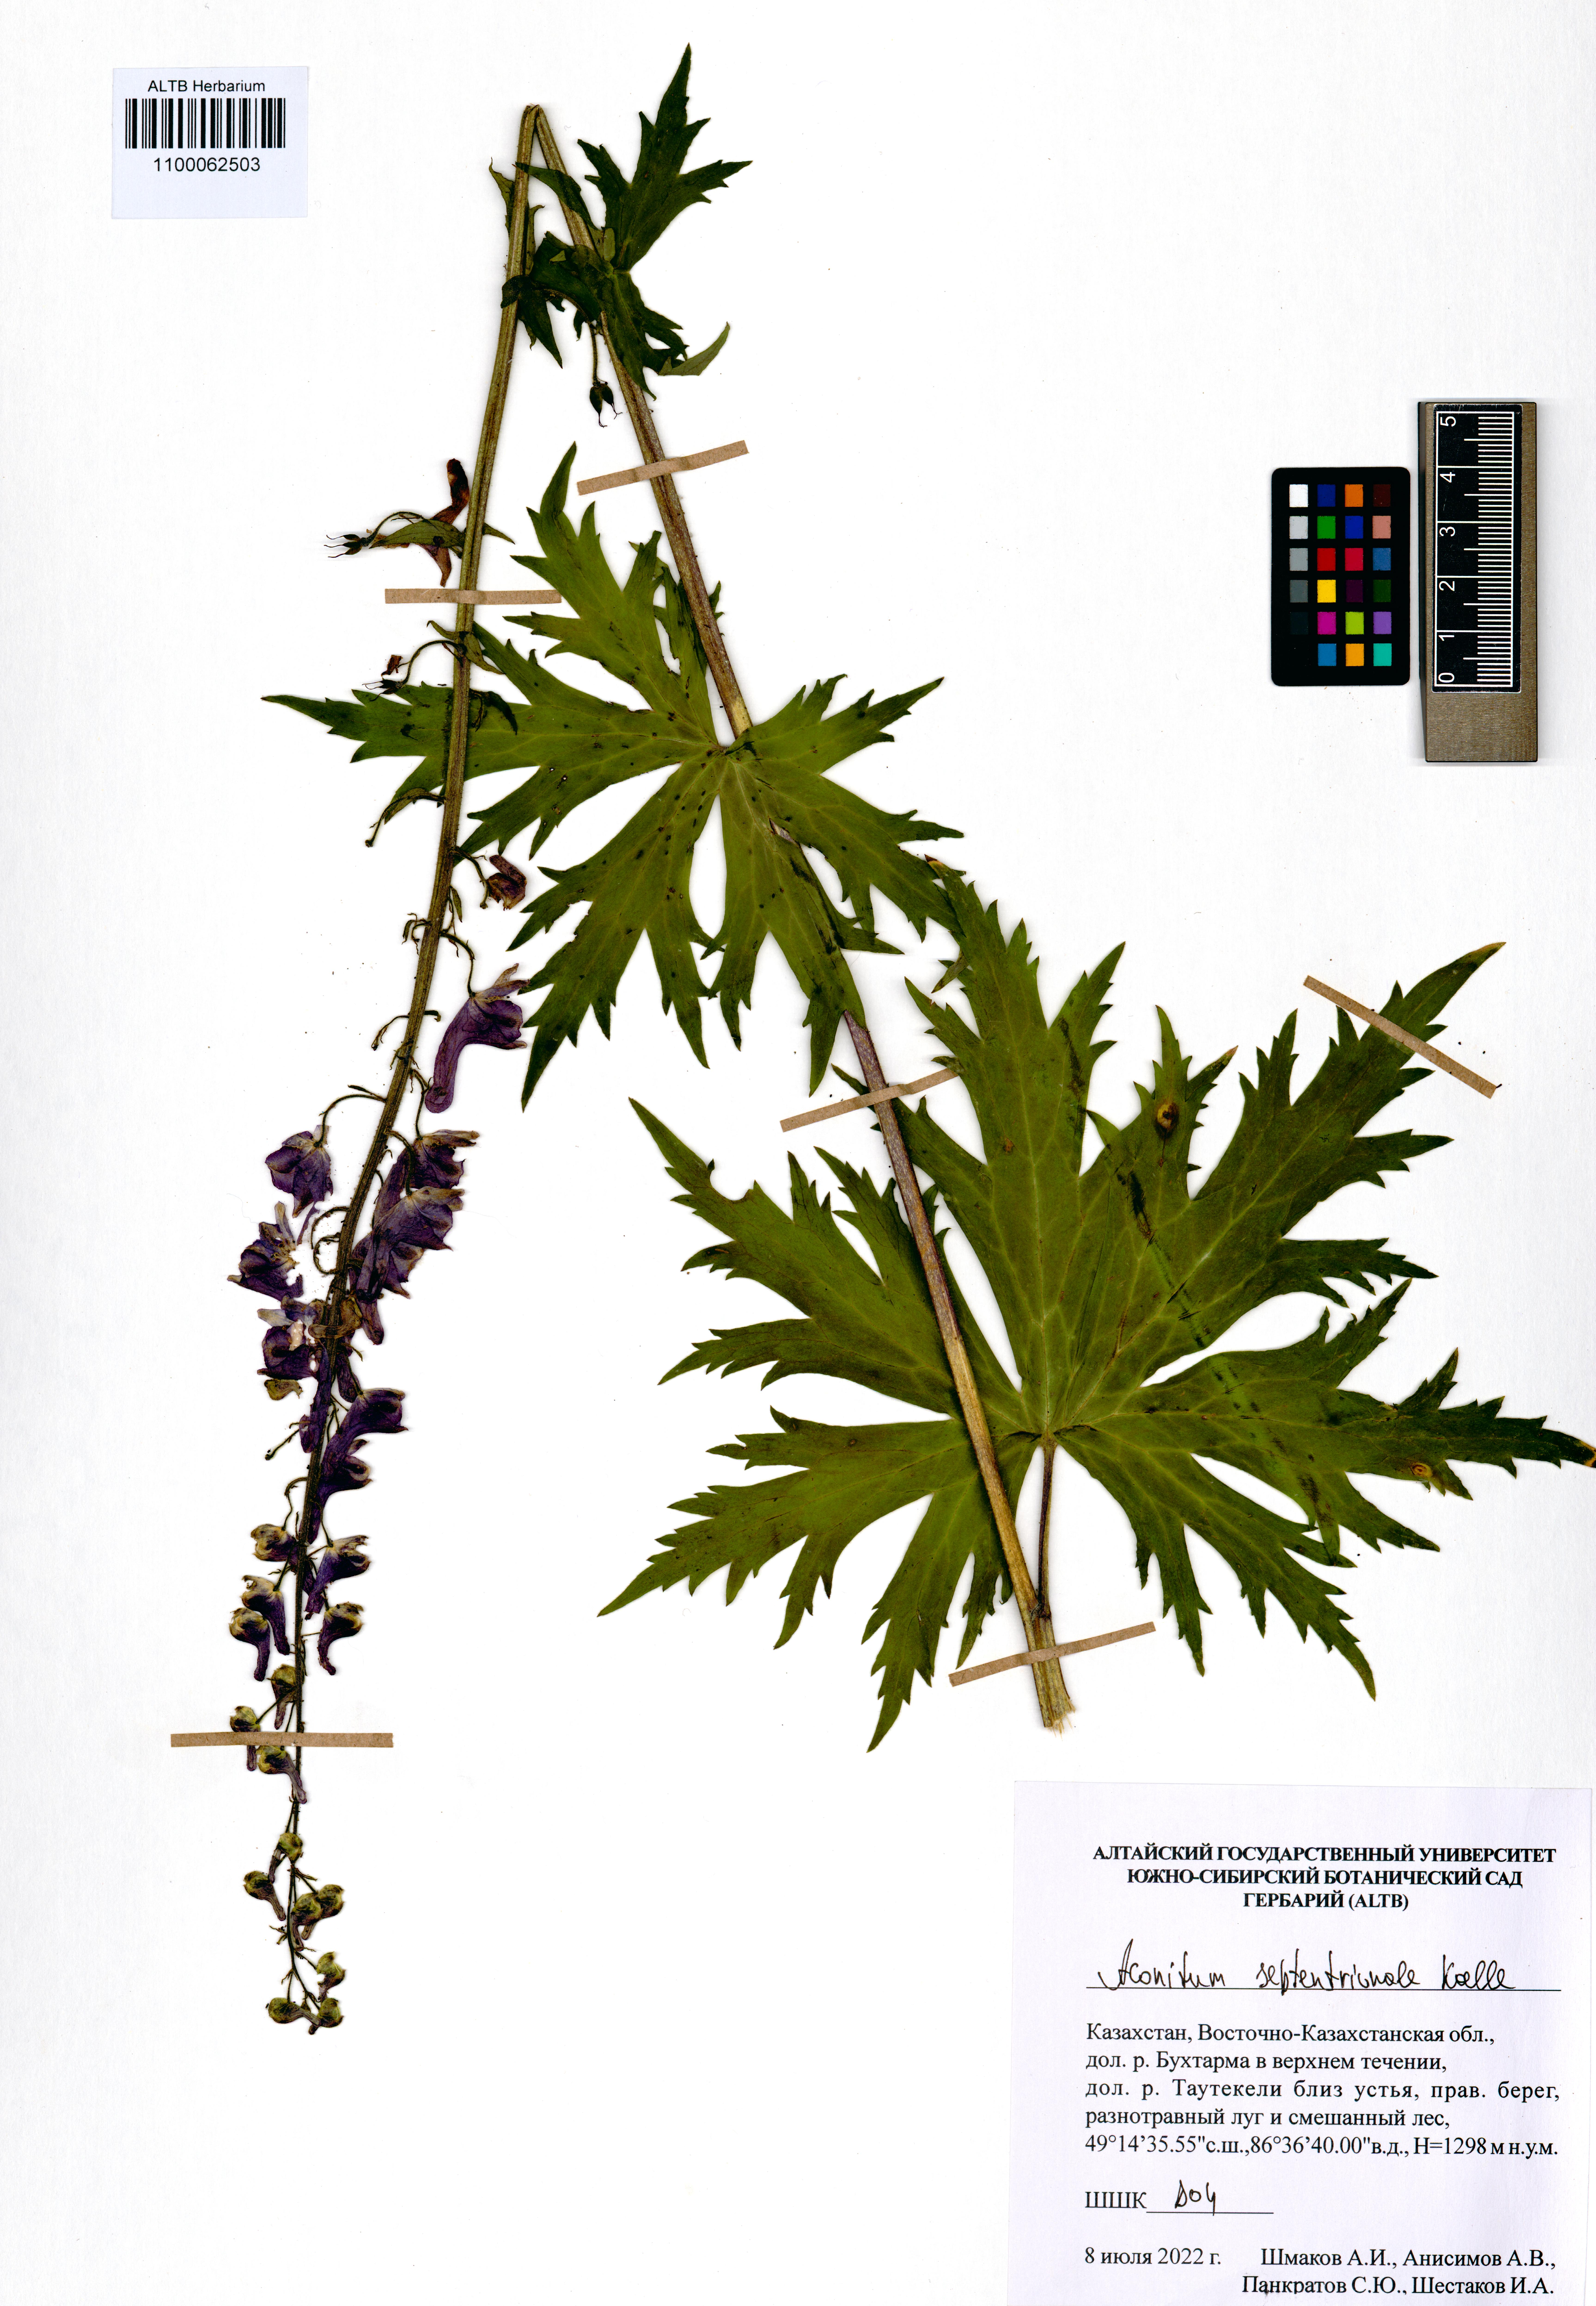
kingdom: Plantae
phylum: Tracheophyta
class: Magnoliopsida
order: Ranunculales
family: Ranunculaceae
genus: Aconitum
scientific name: Aconitum septentrionale
